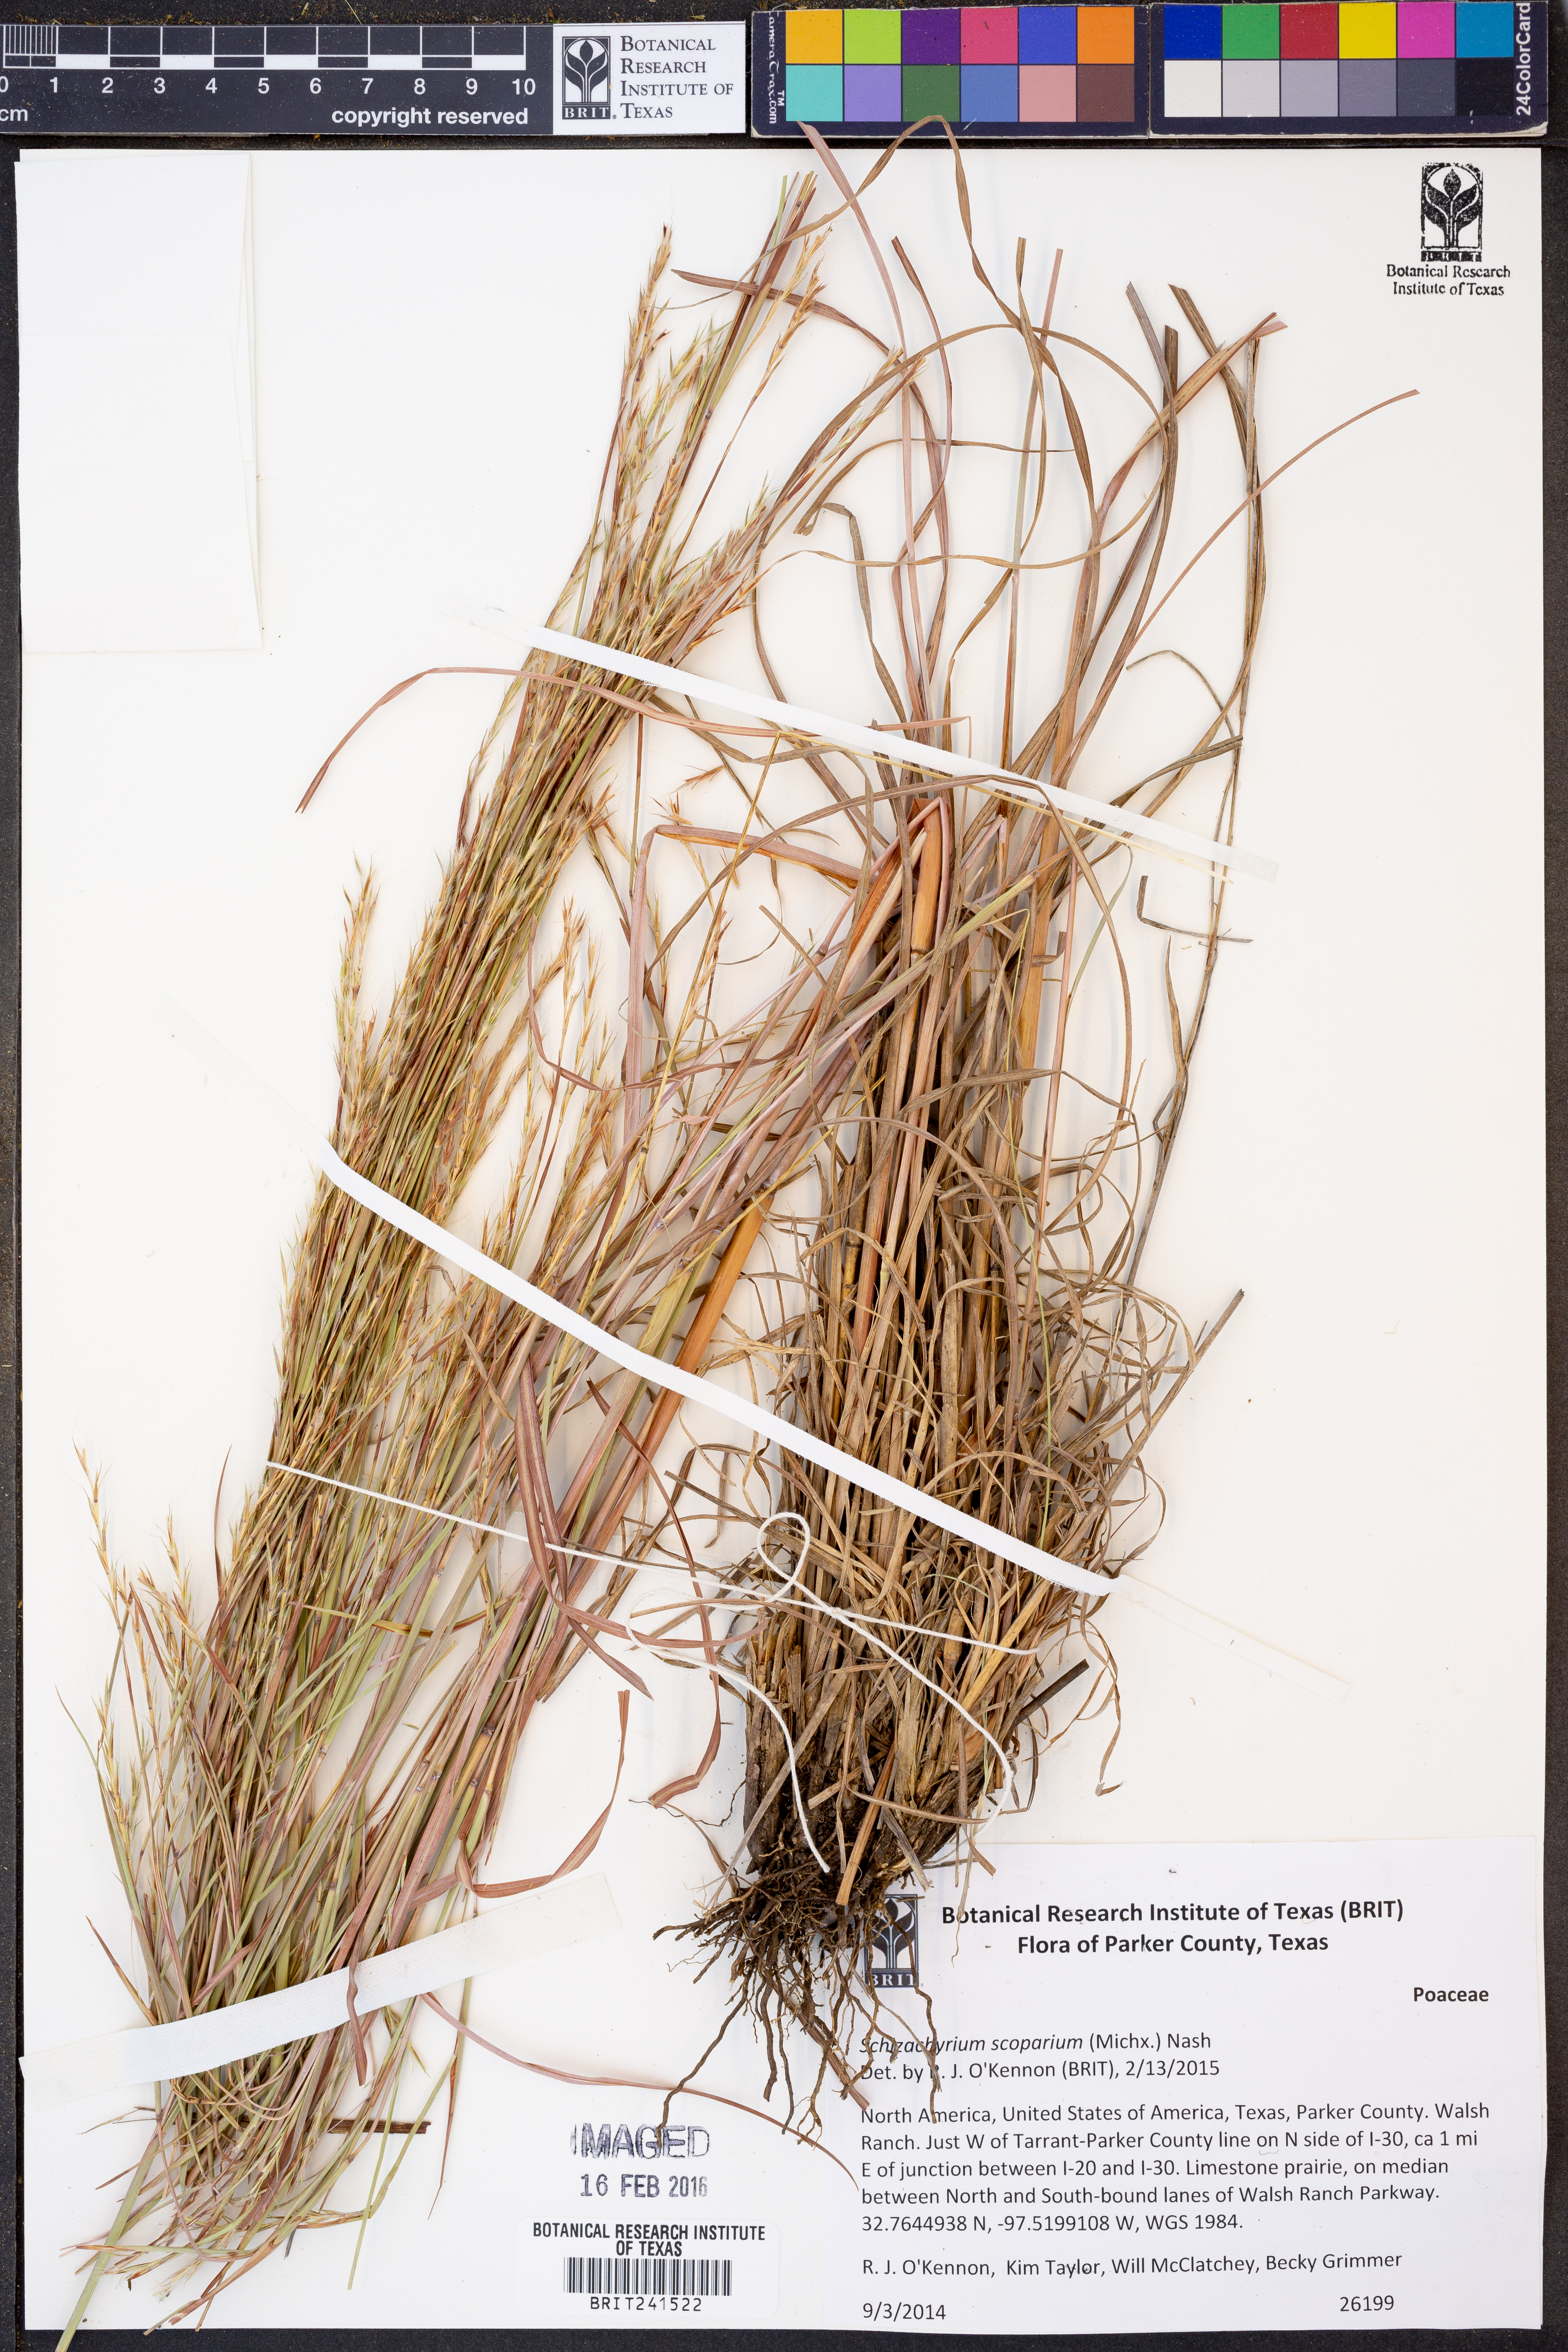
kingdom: Plantae
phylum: Tracheophyta
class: Liliopsida
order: Poales
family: Poaceae
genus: Schizachyrium
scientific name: Schizachyrium scoparium
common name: Little bluestem
